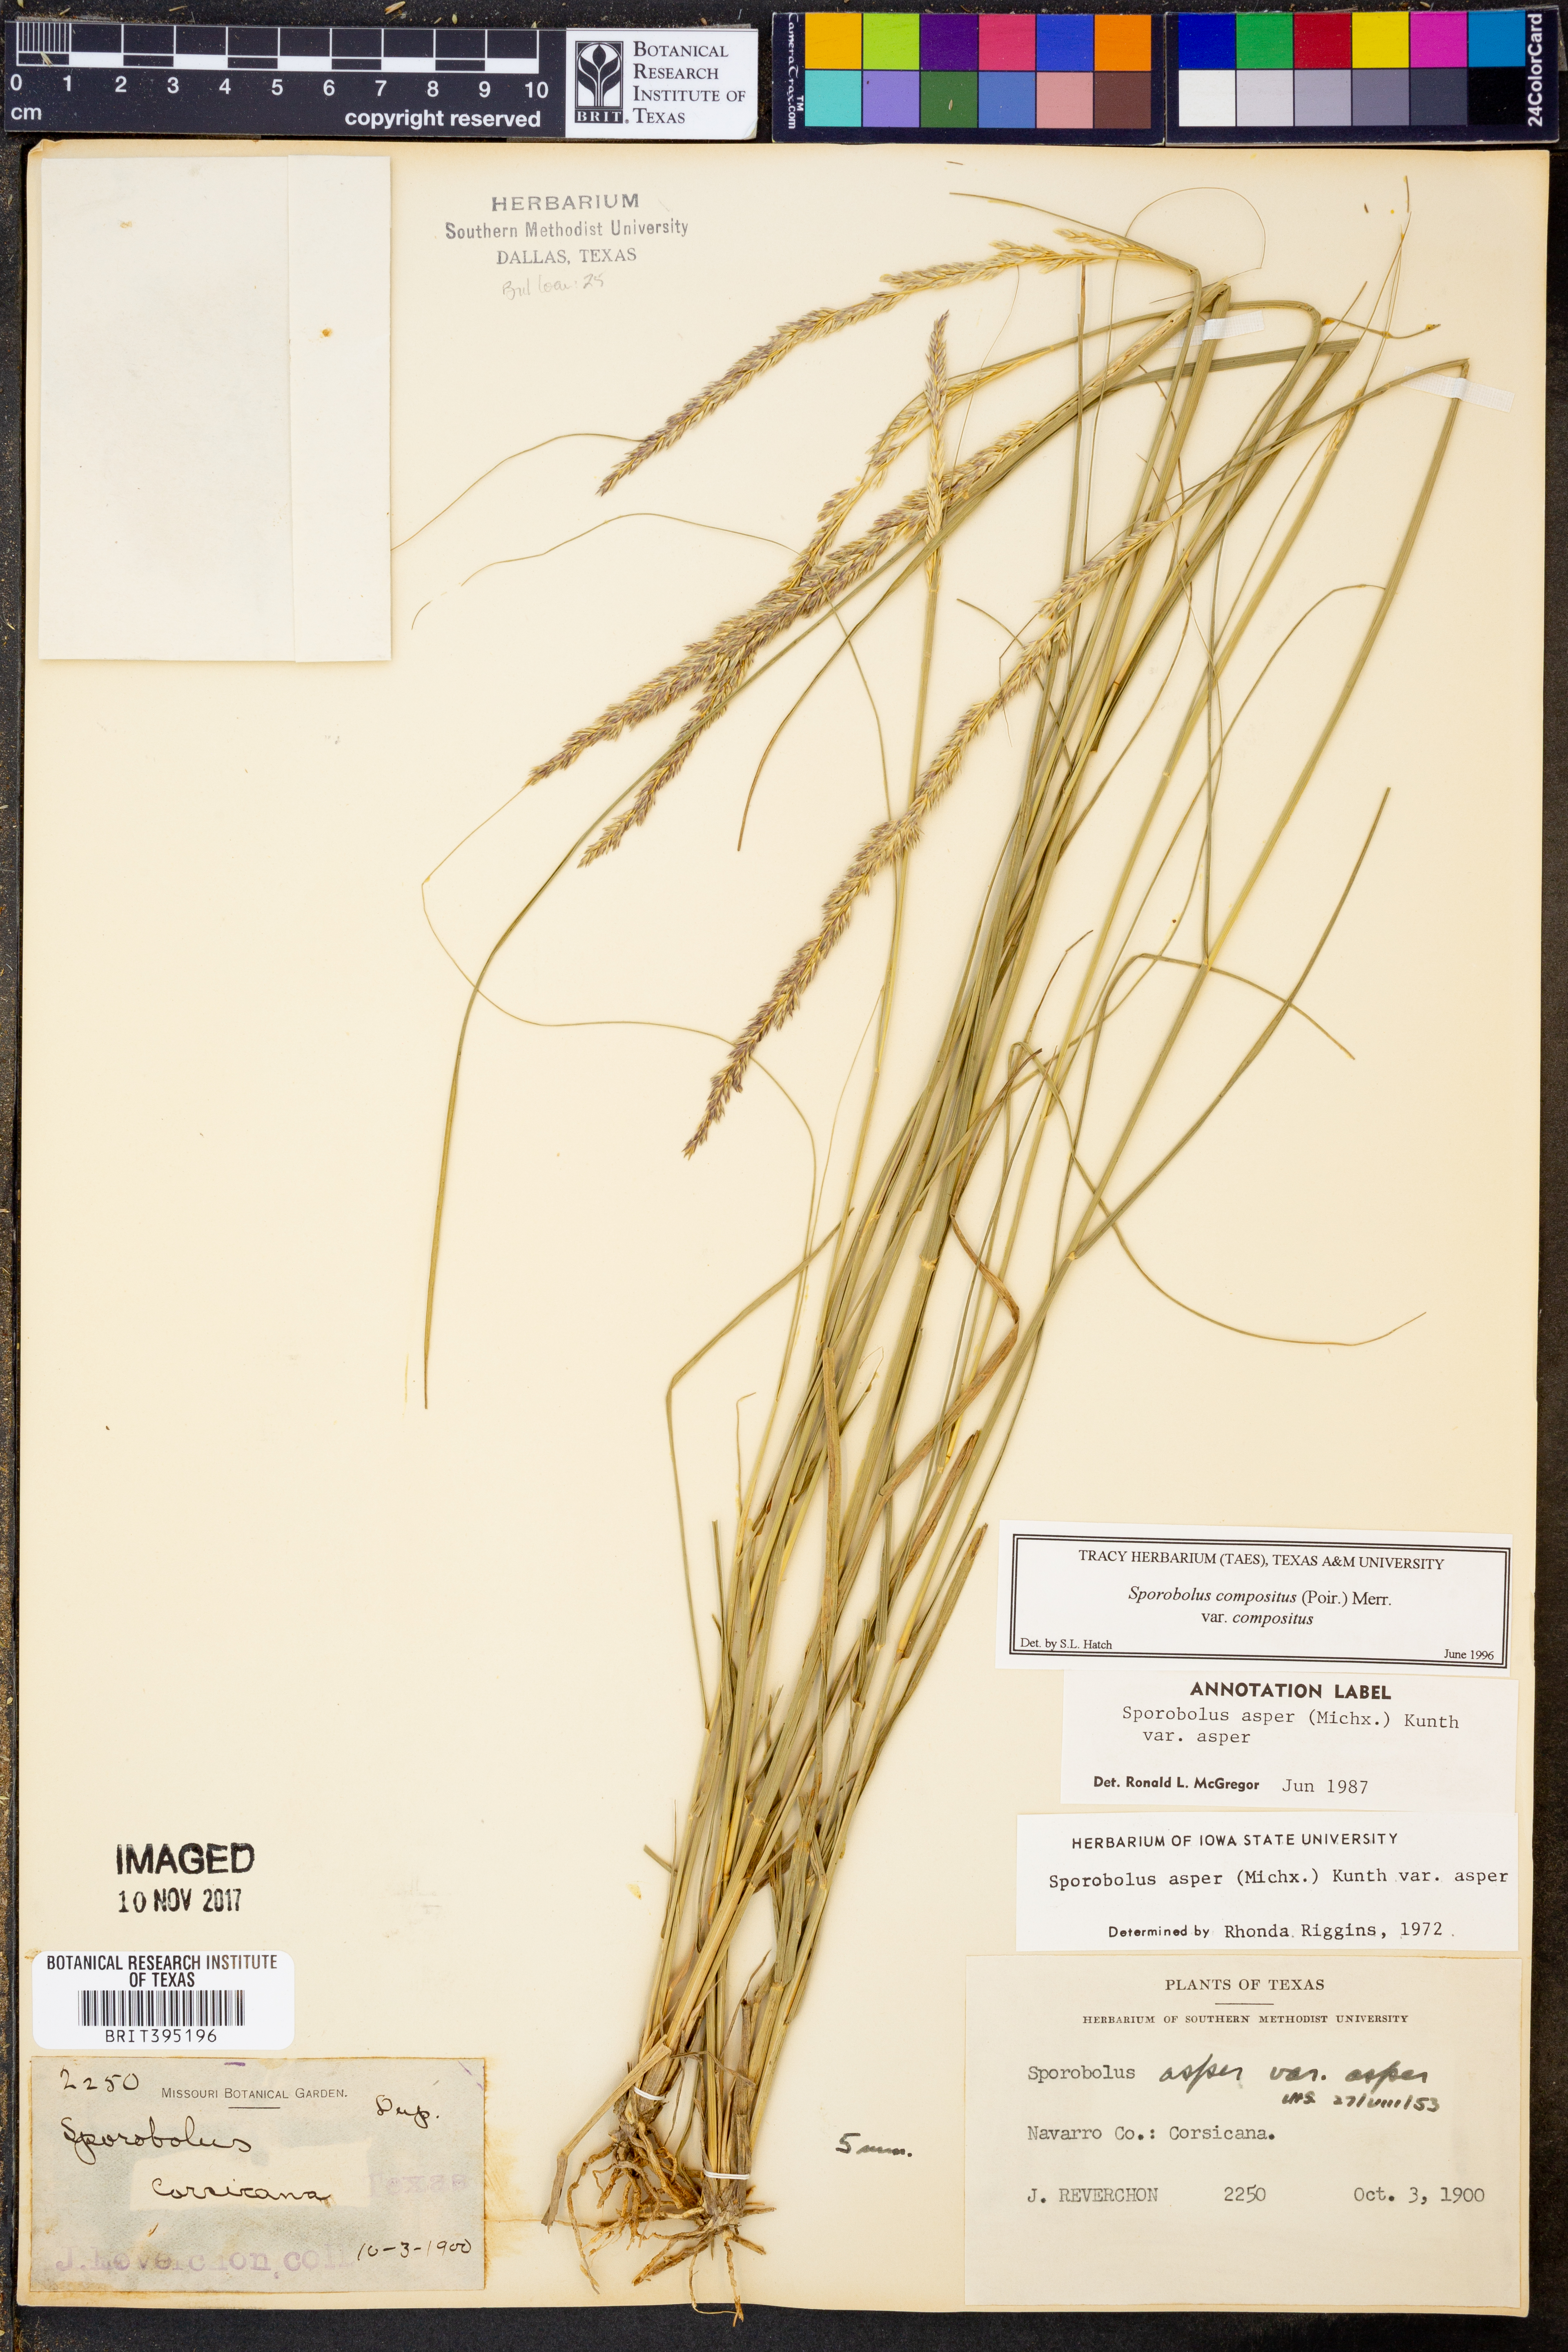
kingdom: Plantae
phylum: Tracheophyta
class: Liliopsida
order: Poales
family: Poaceae
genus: Sporobolus
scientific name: Sporobolus compositus
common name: Rough dropseed
